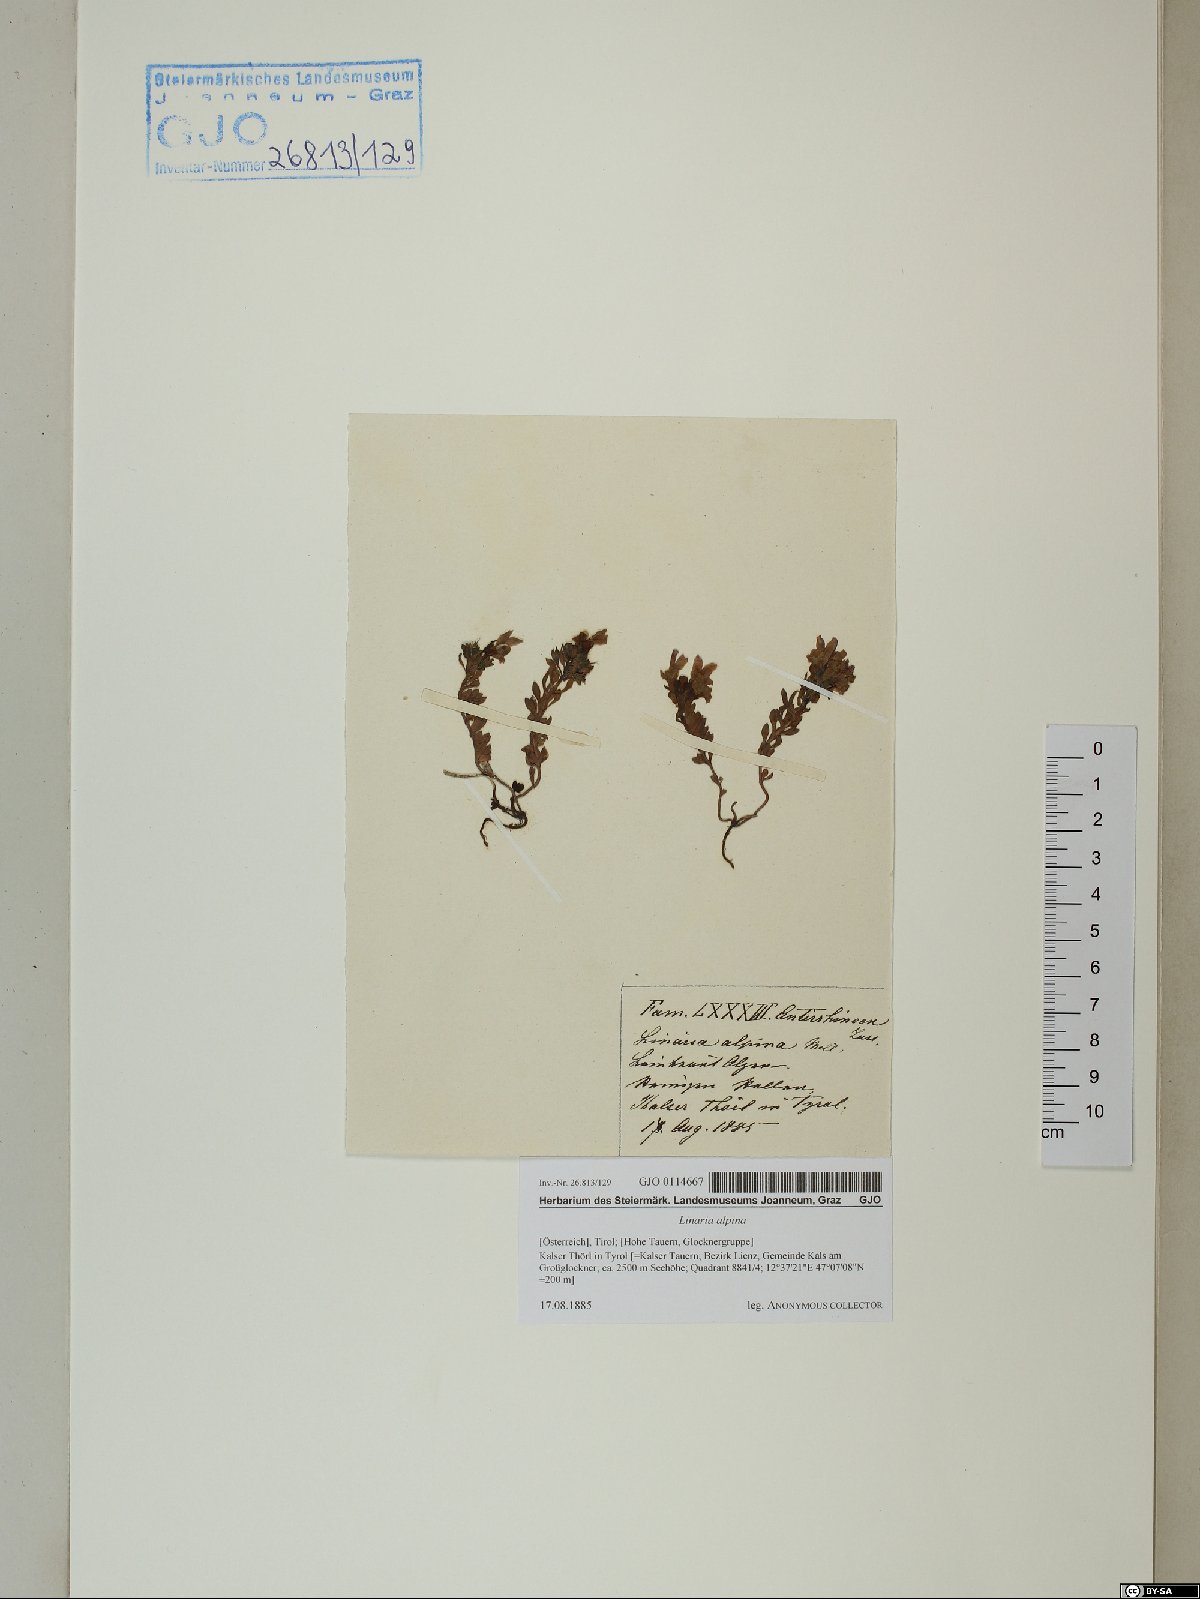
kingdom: Plantae
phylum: Tracheophyta
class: Magnoliopsida
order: Lamiales
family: Plantaginaceae
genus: Linaria
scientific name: Linaria alpina
